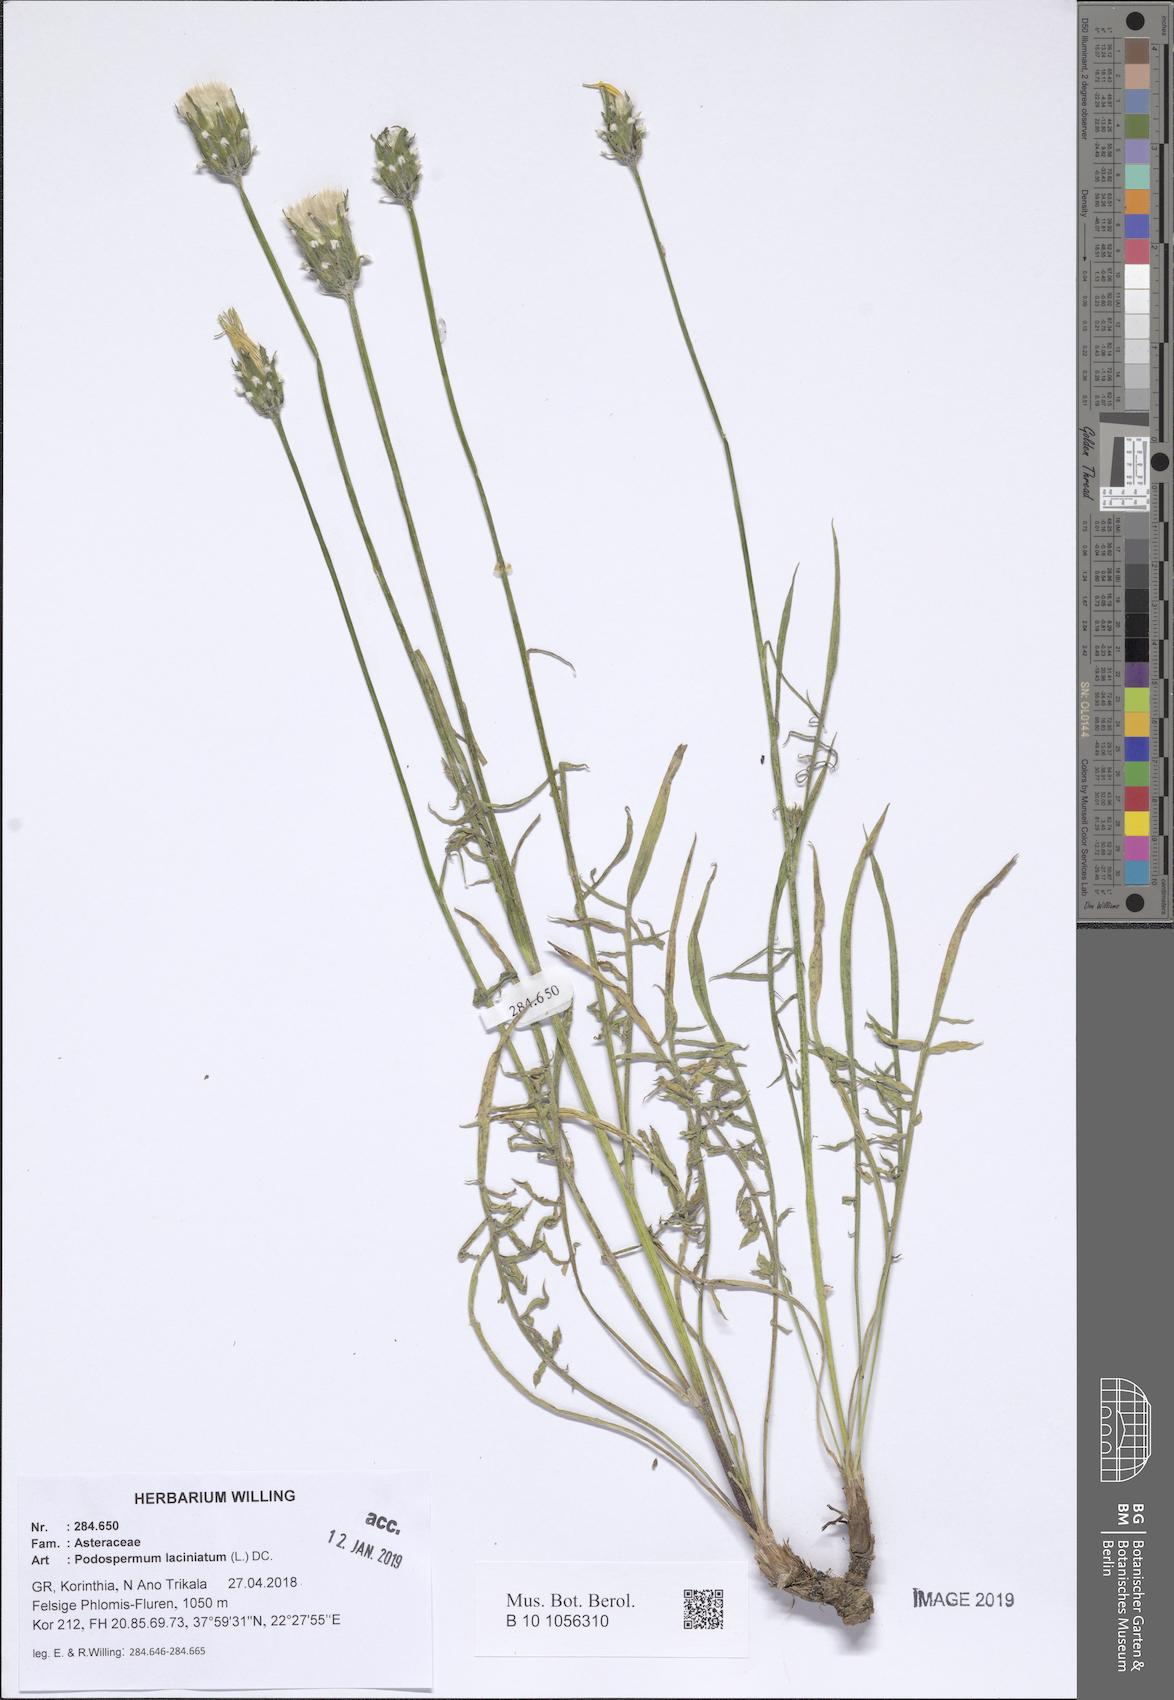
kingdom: Plantae
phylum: Tracheophyta
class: Magnoliopsida
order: Asterales
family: Asteraceae
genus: Scorzonera
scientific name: Scorzonera laciniata
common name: Cutleaf vipergrass
